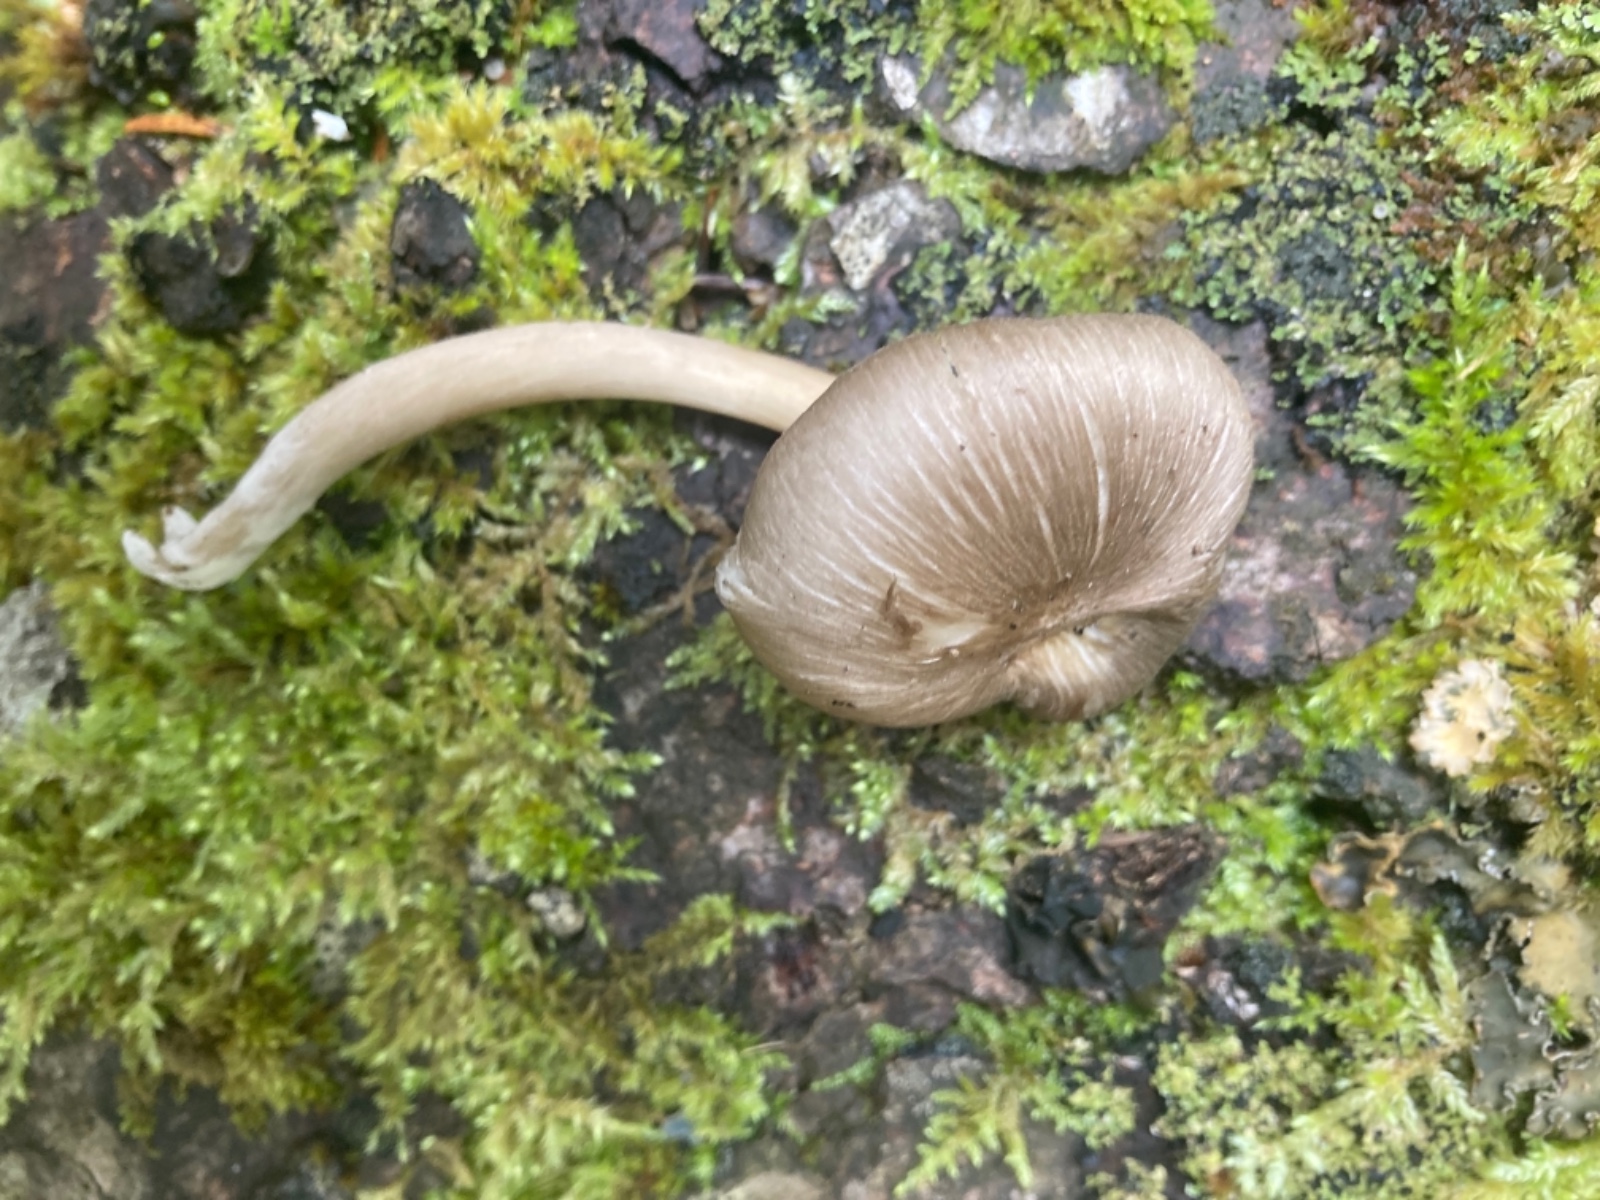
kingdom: Fungi
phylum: Basidiomycota
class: Agaricomycetes
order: Agaricales
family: Marasmiaceae
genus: Clitocybula
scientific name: Clitocybula lacerata
